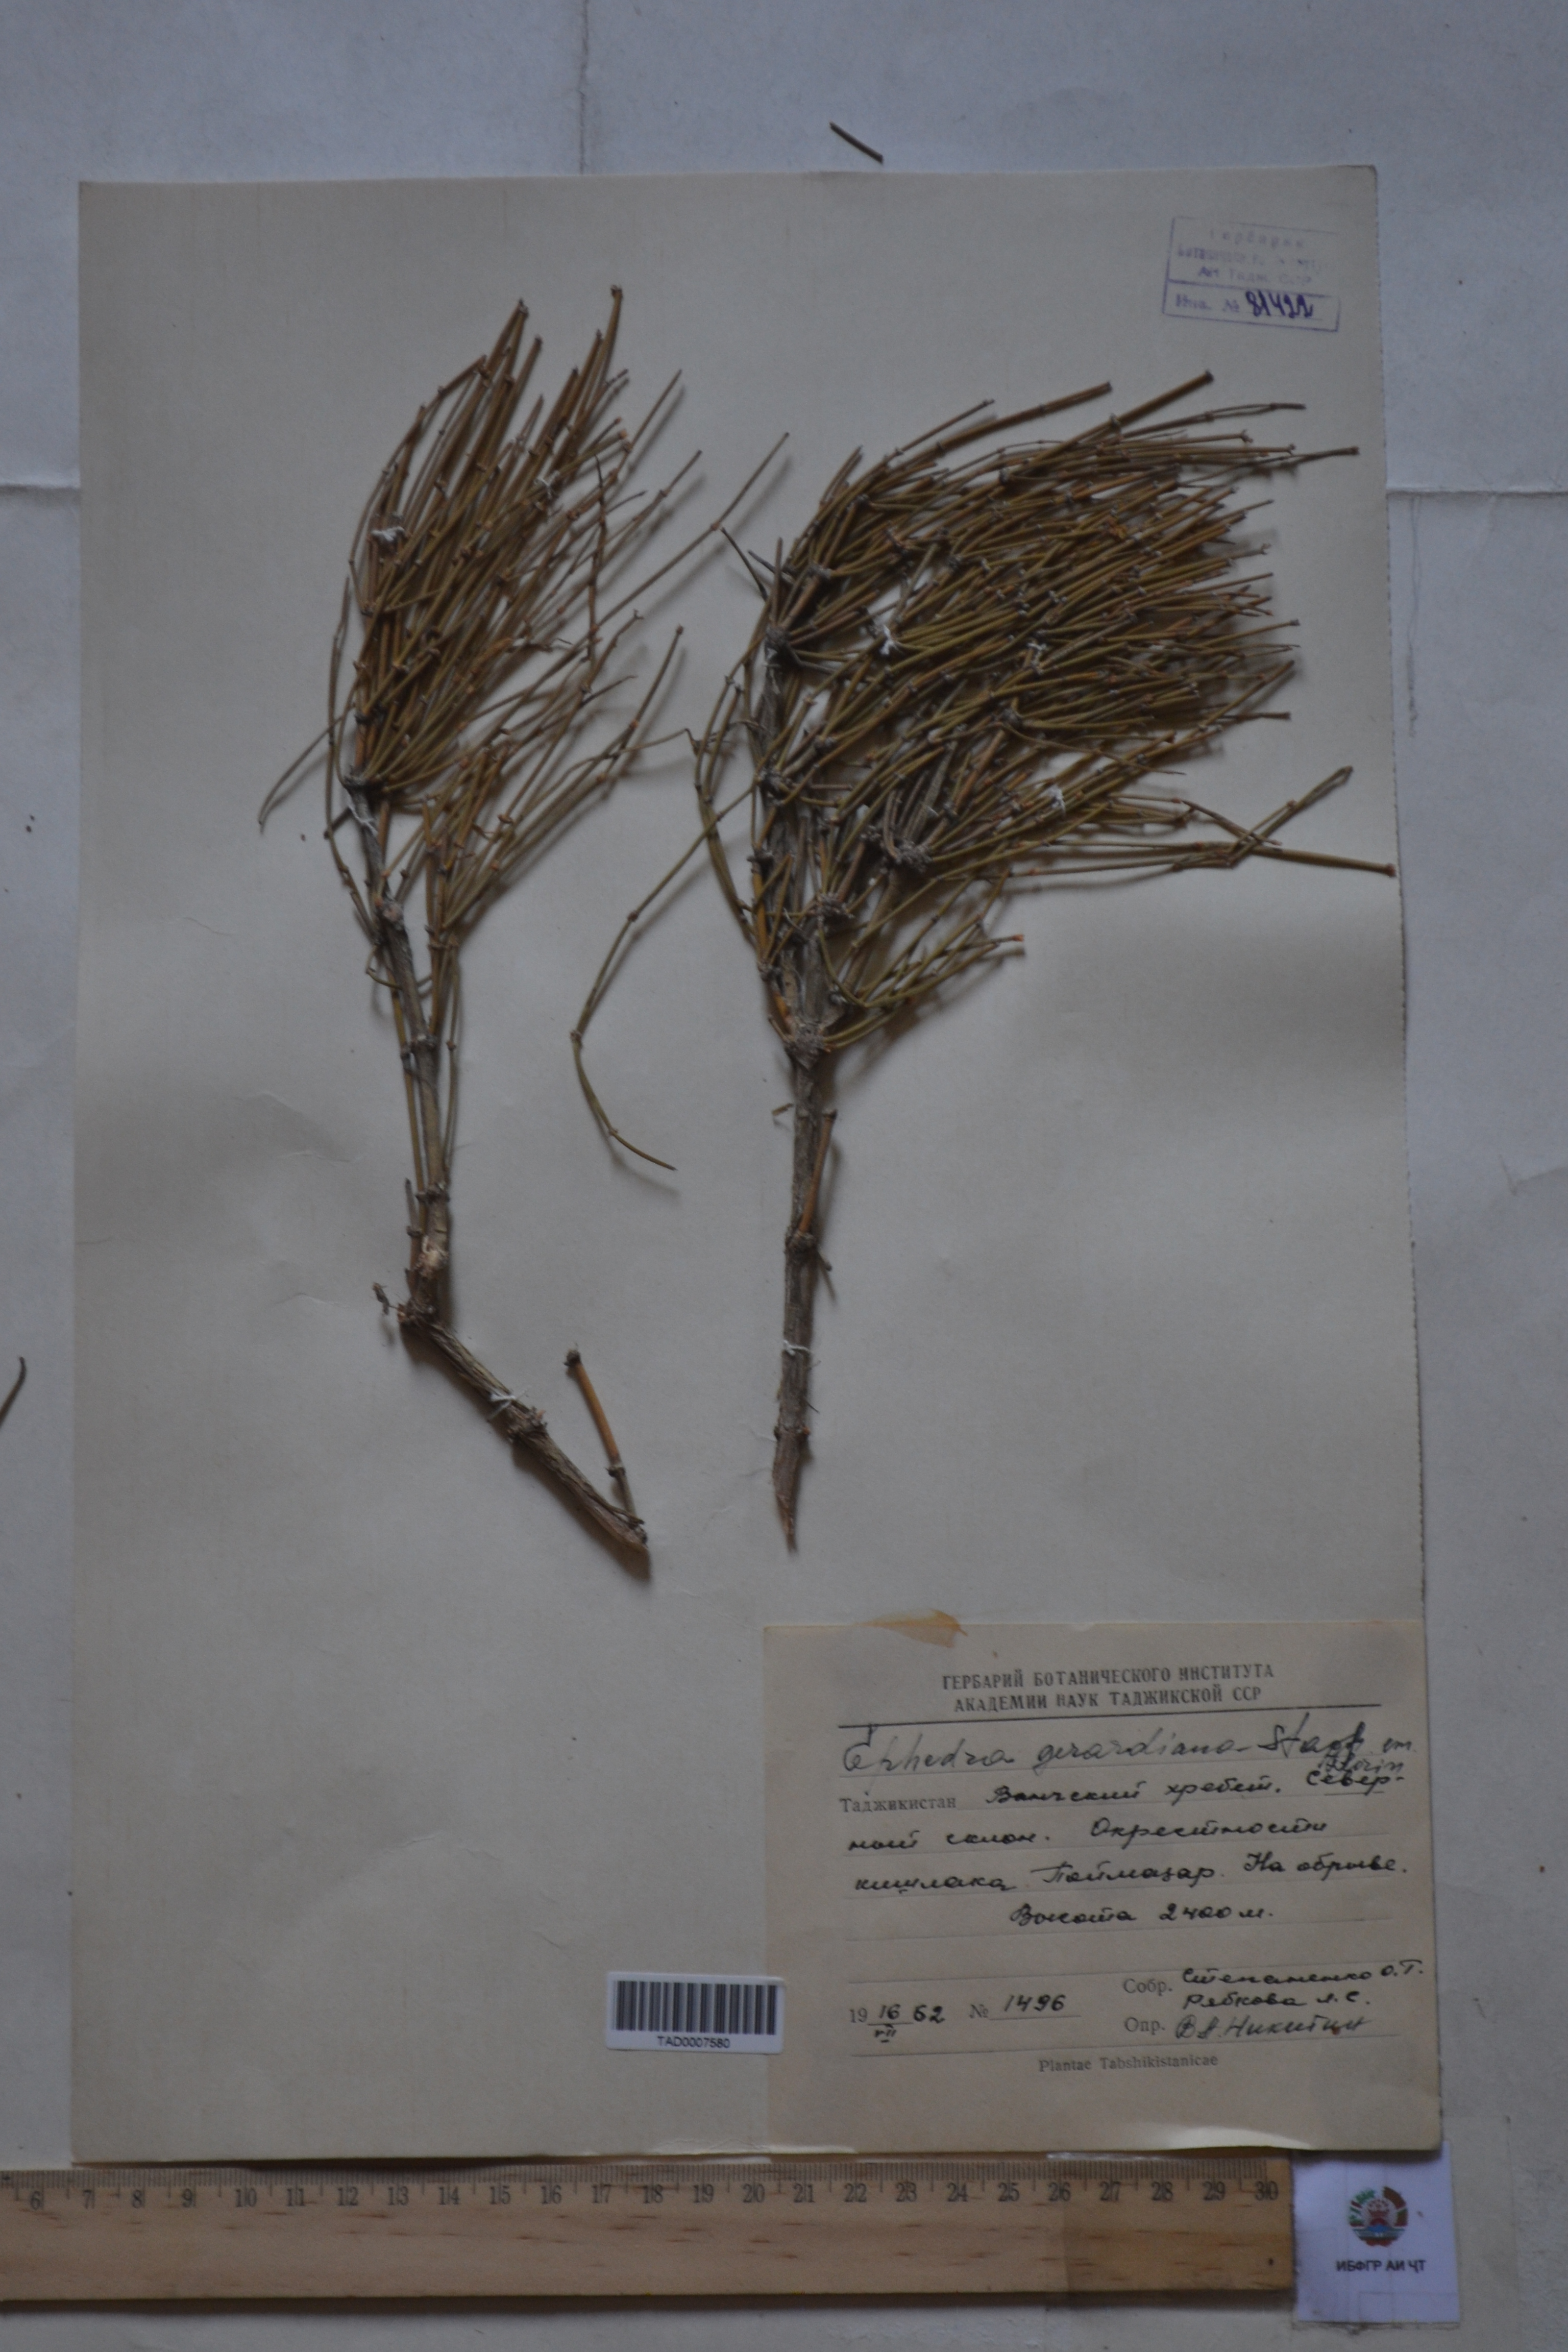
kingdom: Plantae
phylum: Tracheophyta
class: Gnetopsida
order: Ephedrales
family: Ephedraceae
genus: Ephedra
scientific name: Ephedra gerardiana
